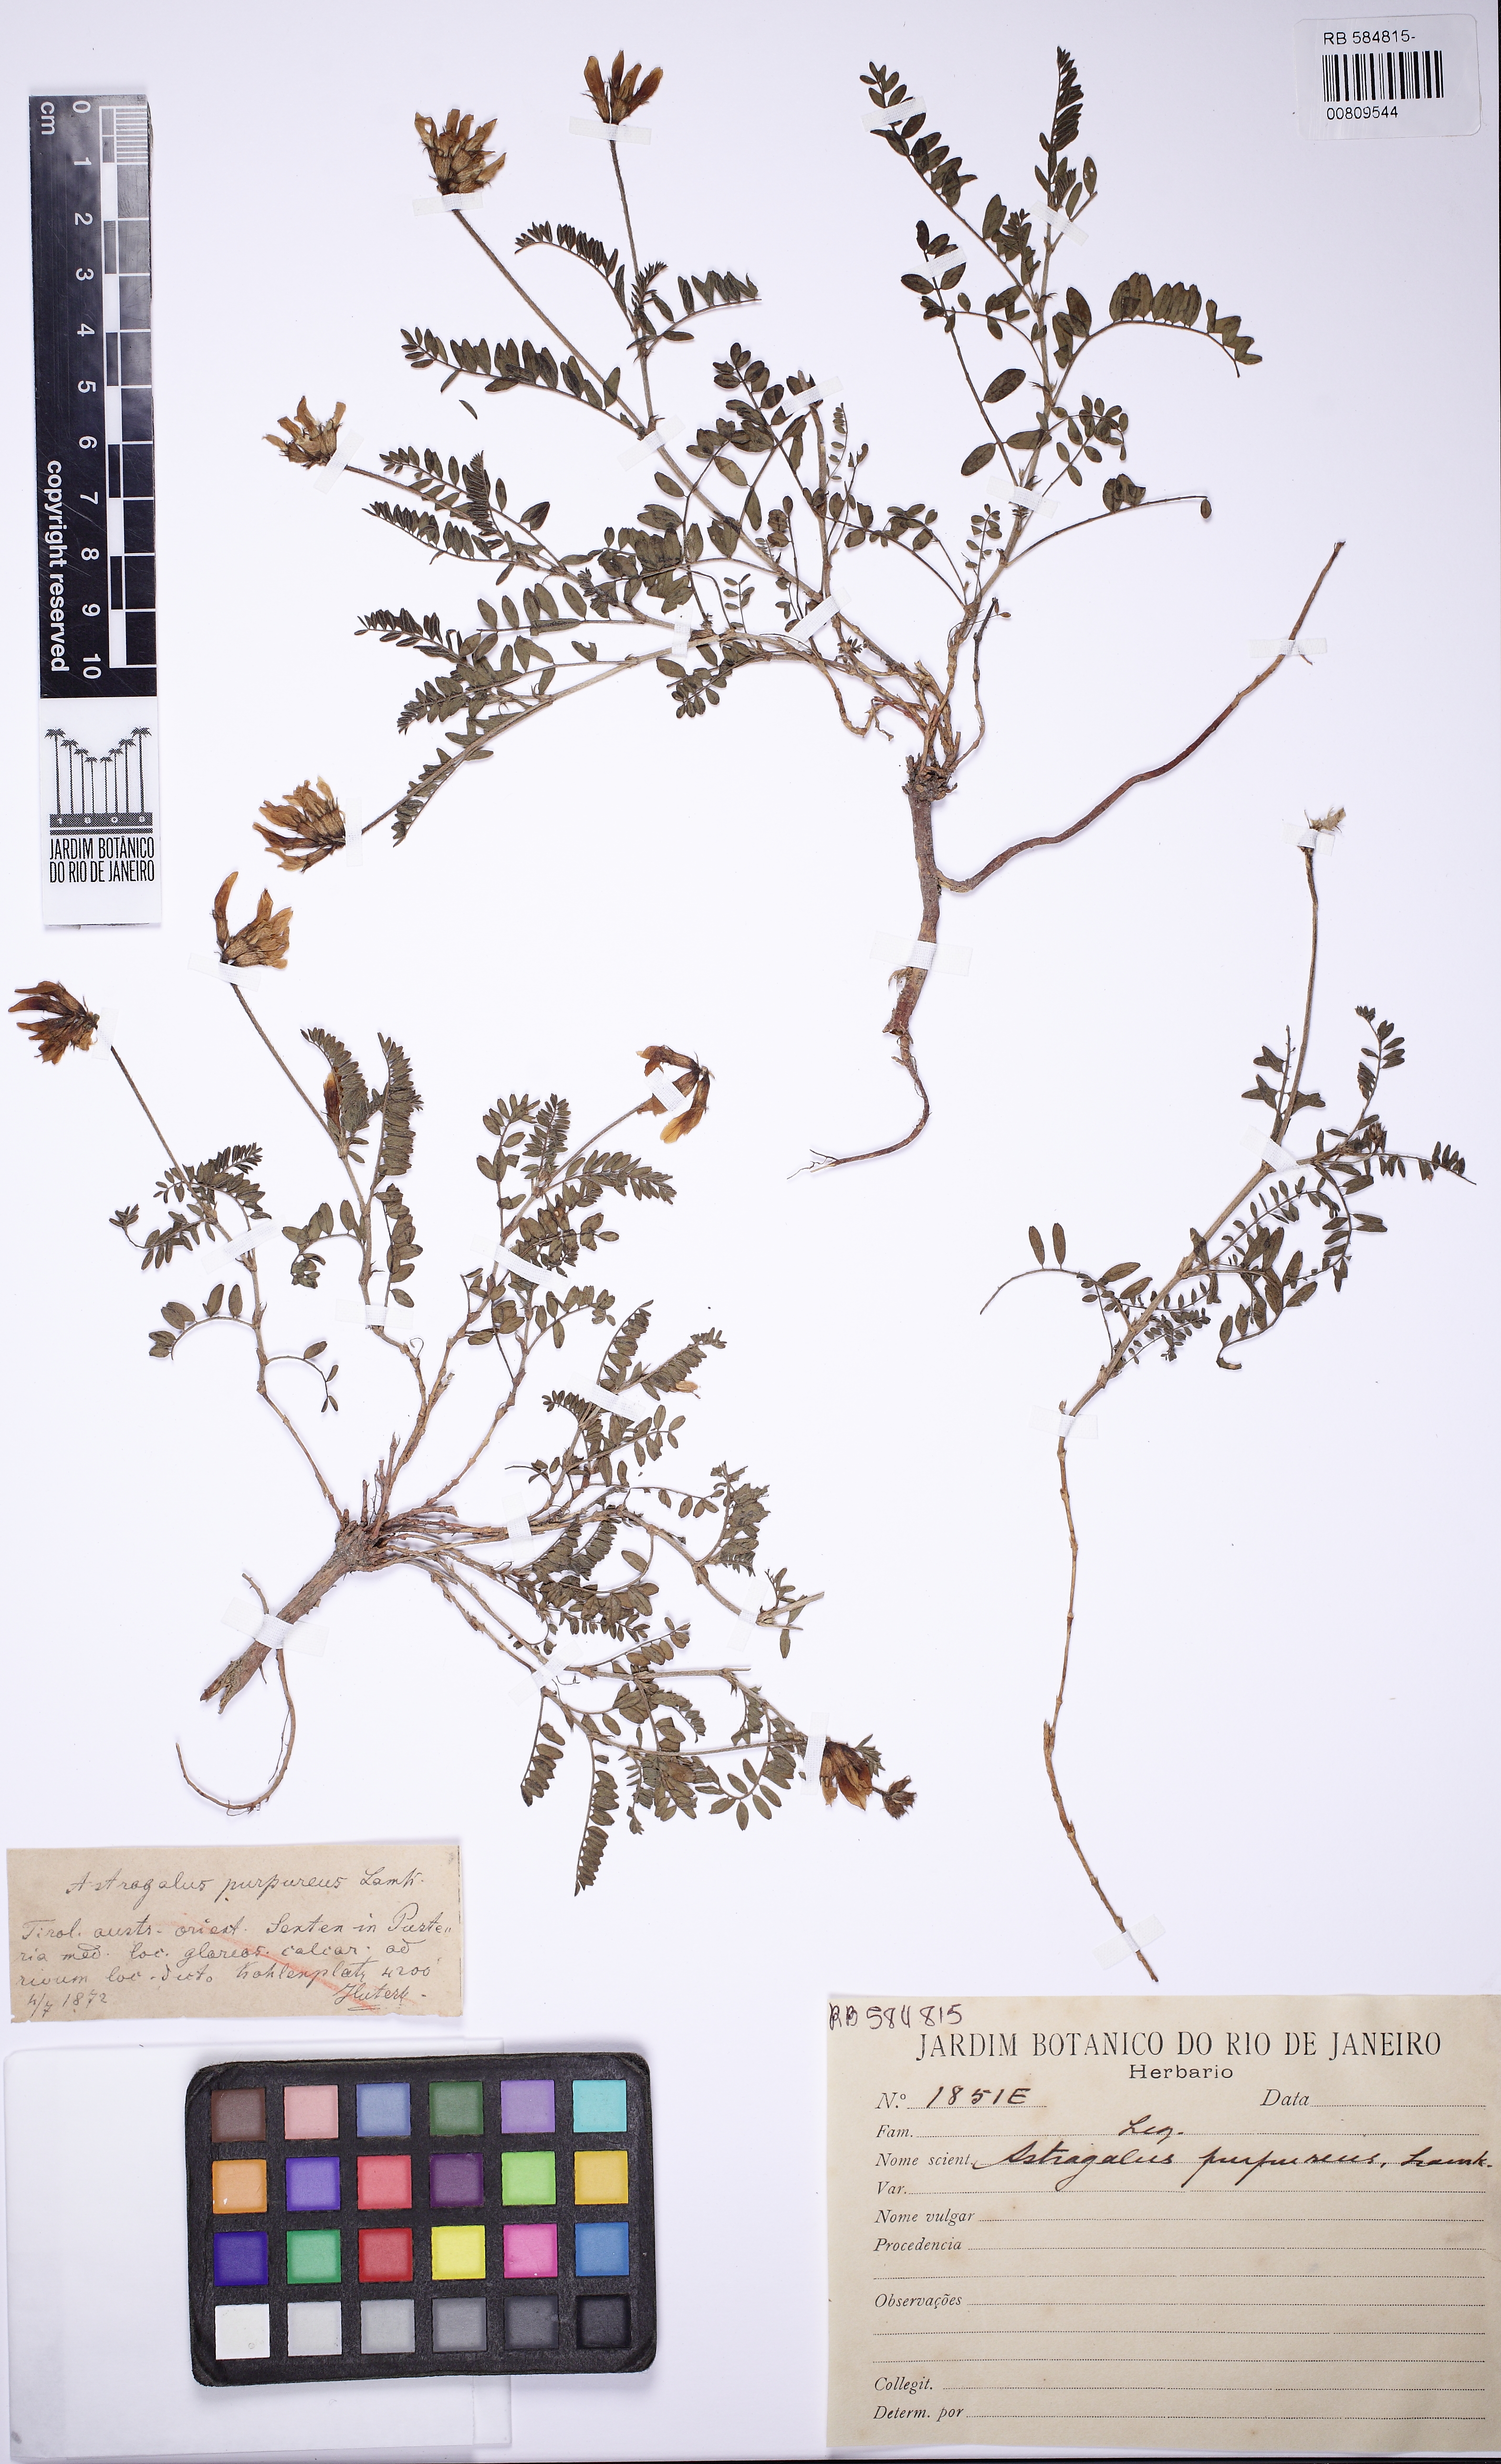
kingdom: Plantae
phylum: Tracheophyta
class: Magnoliopsida
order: Fabales
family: Fabaceae
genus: Astragalus
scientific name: Astragalus hypoglottis
